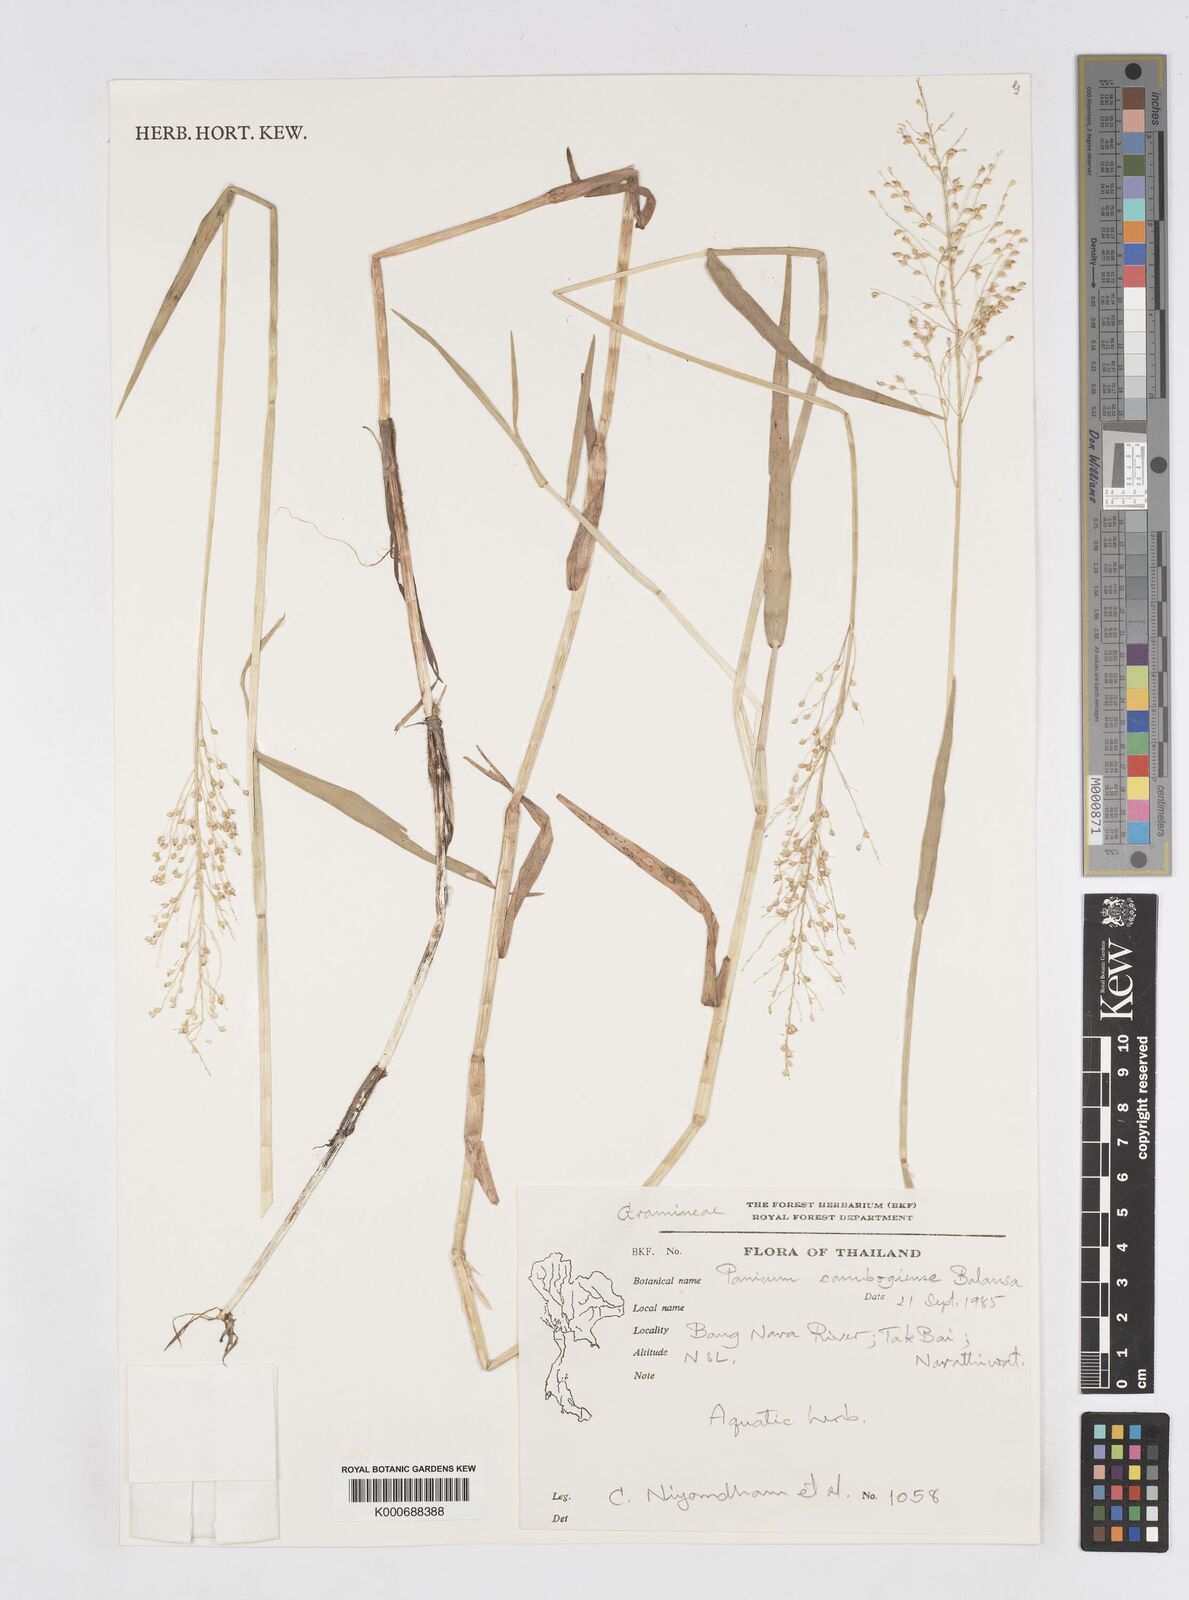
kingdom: Plantae
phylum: Tracheophyta
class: Liliopsida
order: Poales
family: Poaceae
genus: Isachne
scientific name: Isachne globosa
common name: Swamp millet
